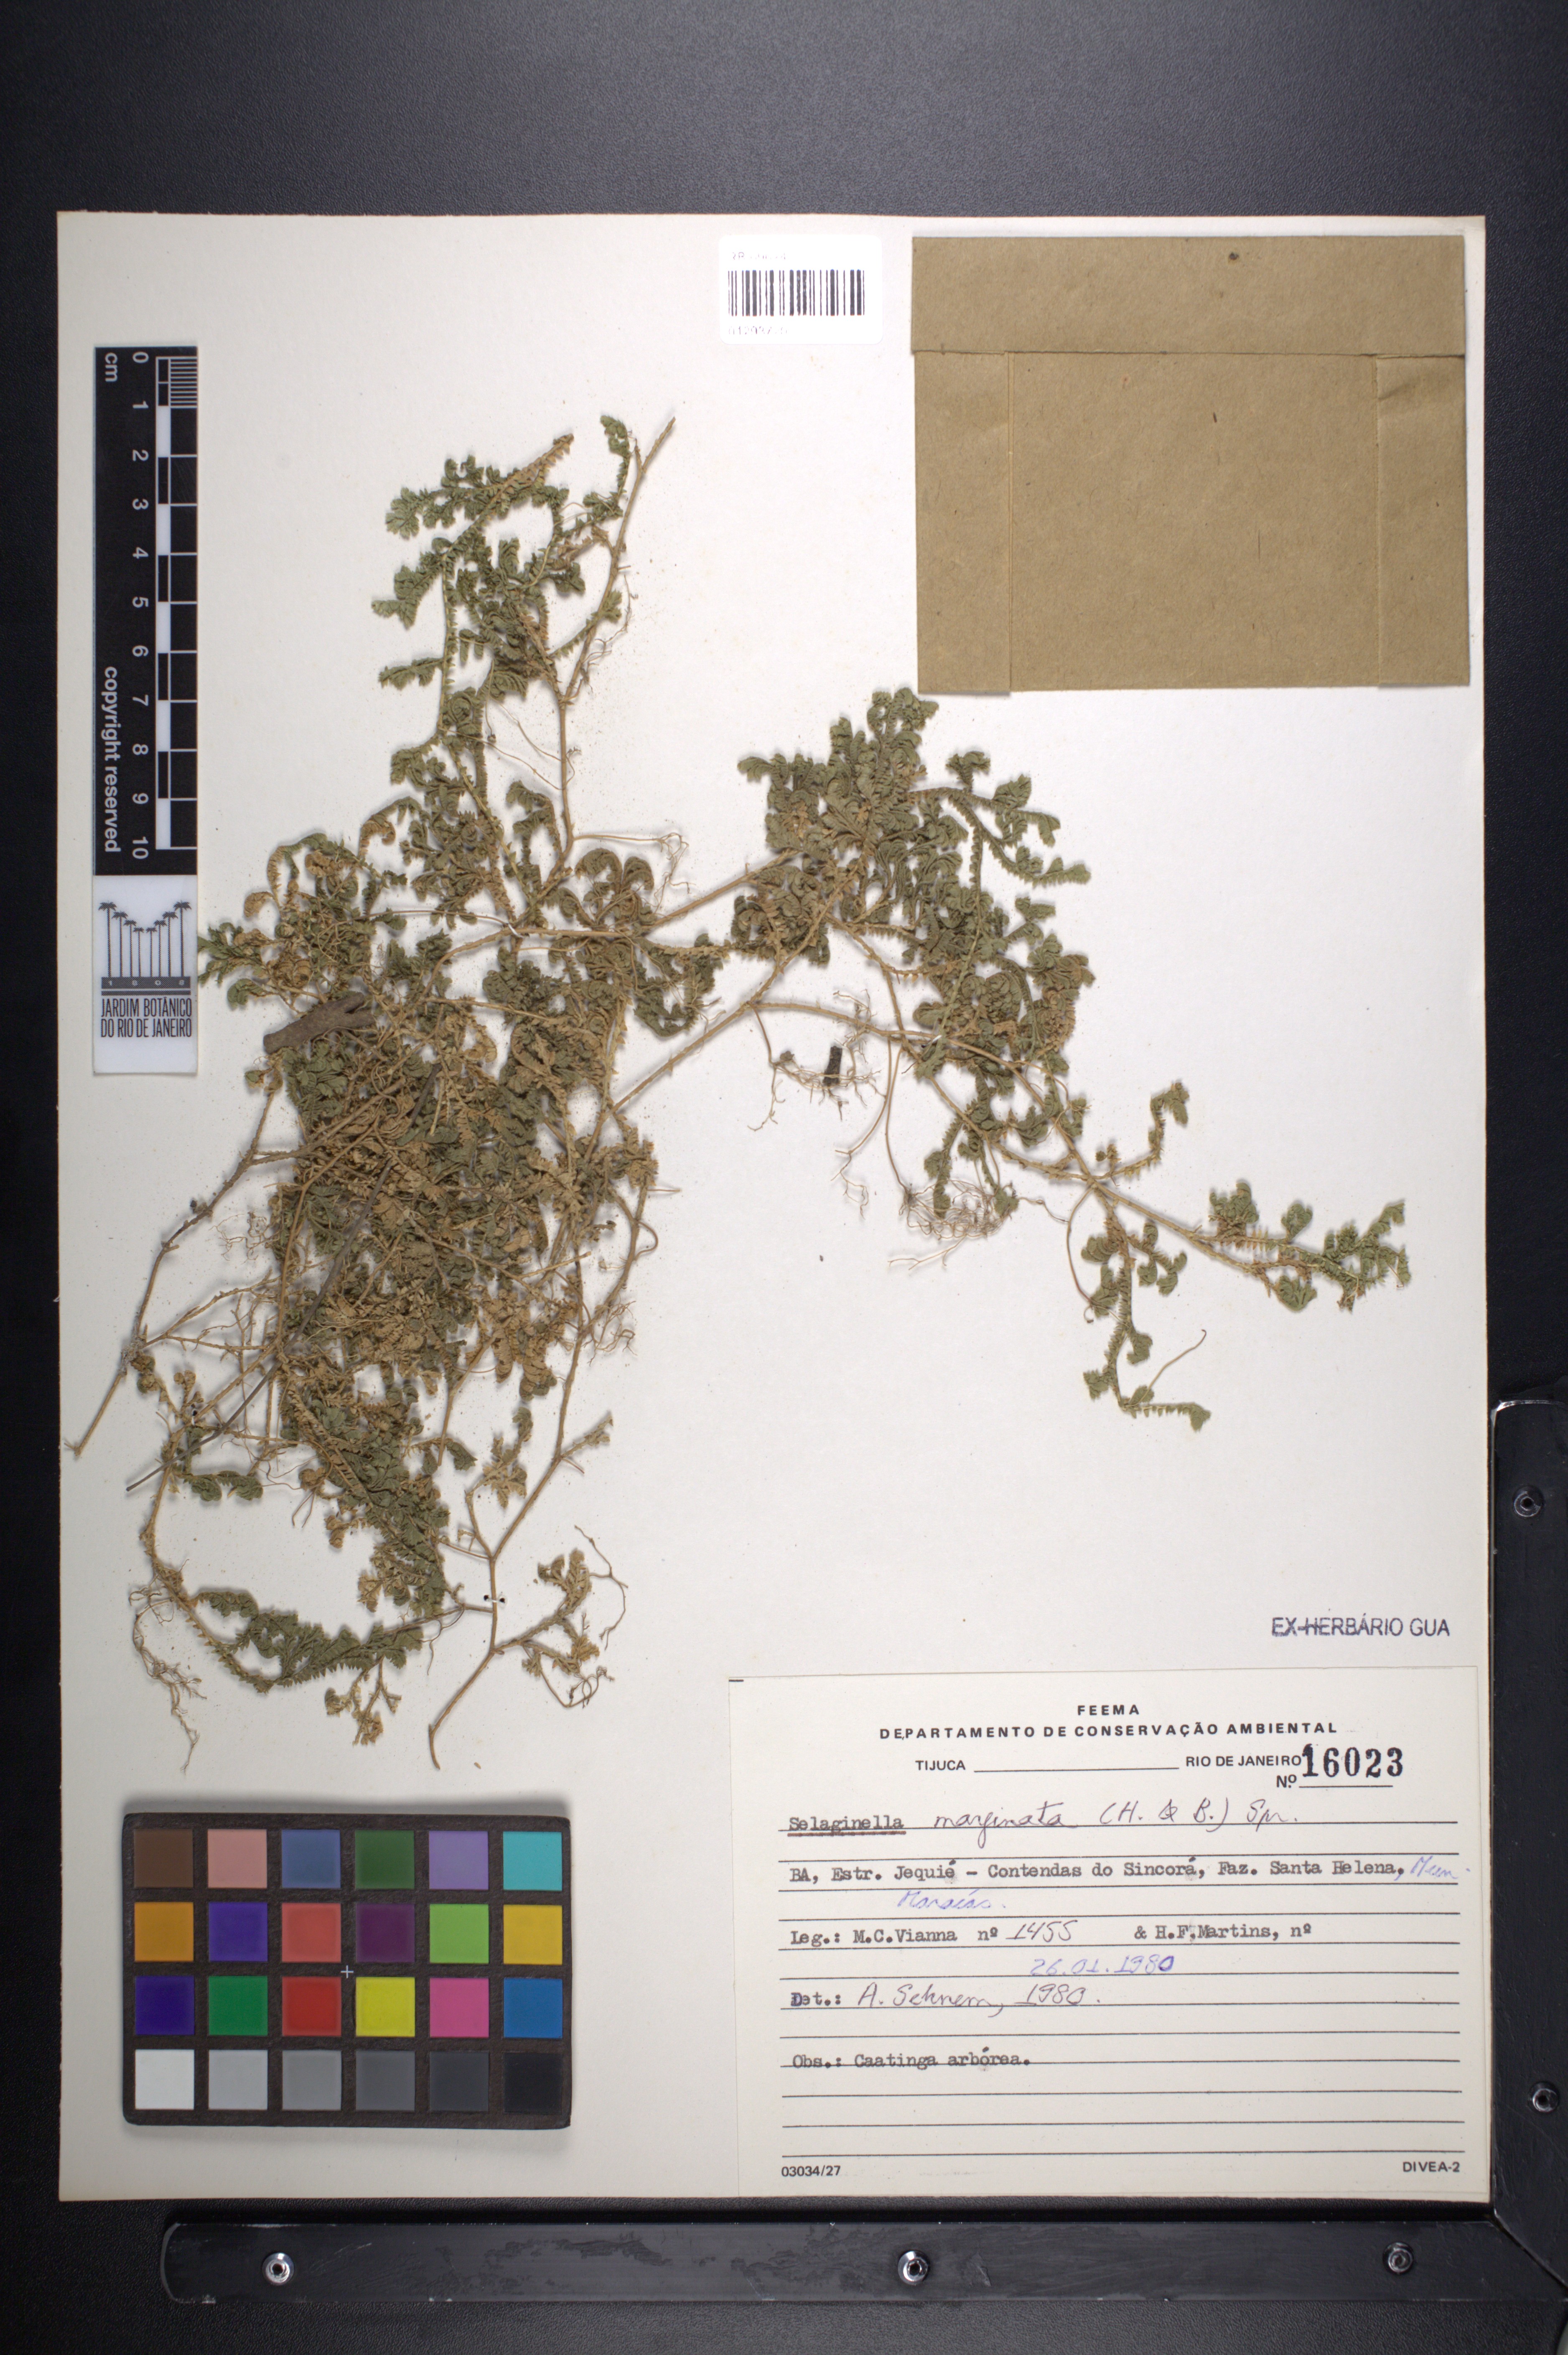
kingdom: Plantae
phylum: Tracheophyta
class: Lycopodiopsida
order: Selaginellales
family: Selaginellaceae
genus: Selaginella
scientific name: Selaginella marginata
